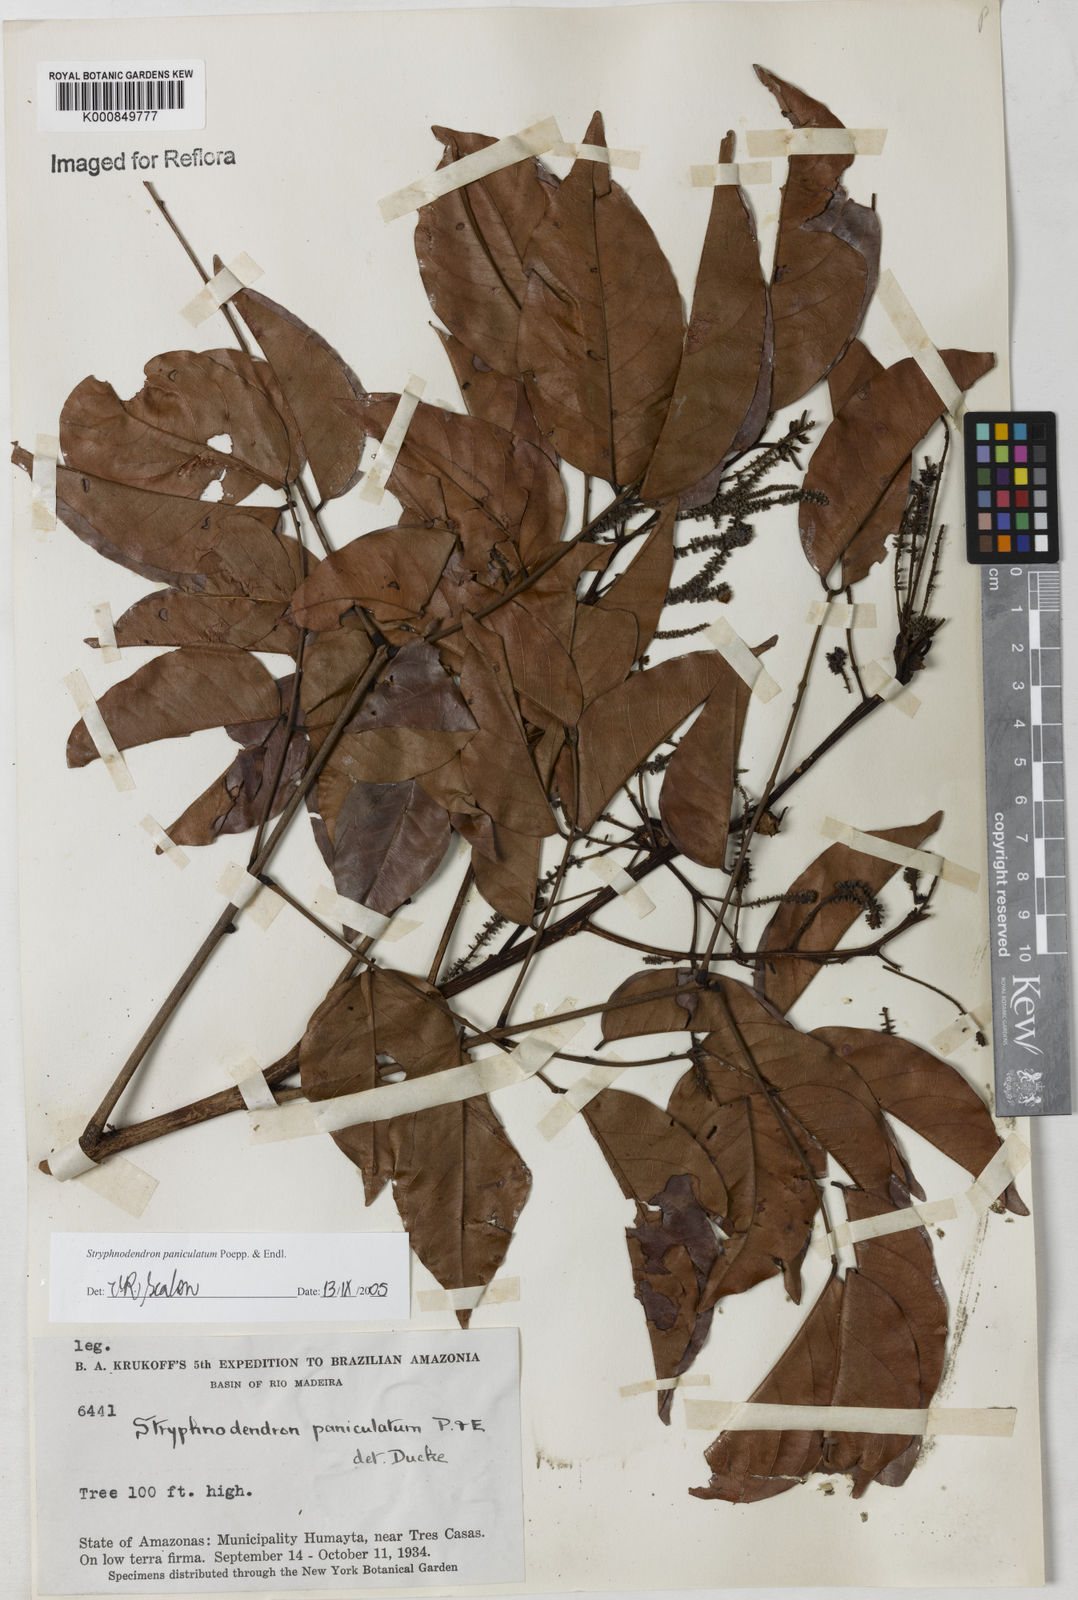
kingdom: Plantae
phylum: Tracheophyta
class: Magnoliopsida
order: Fabales
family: Fabaceae
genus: Stryphnodendron
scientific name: Stryphnodendron paniculatum
